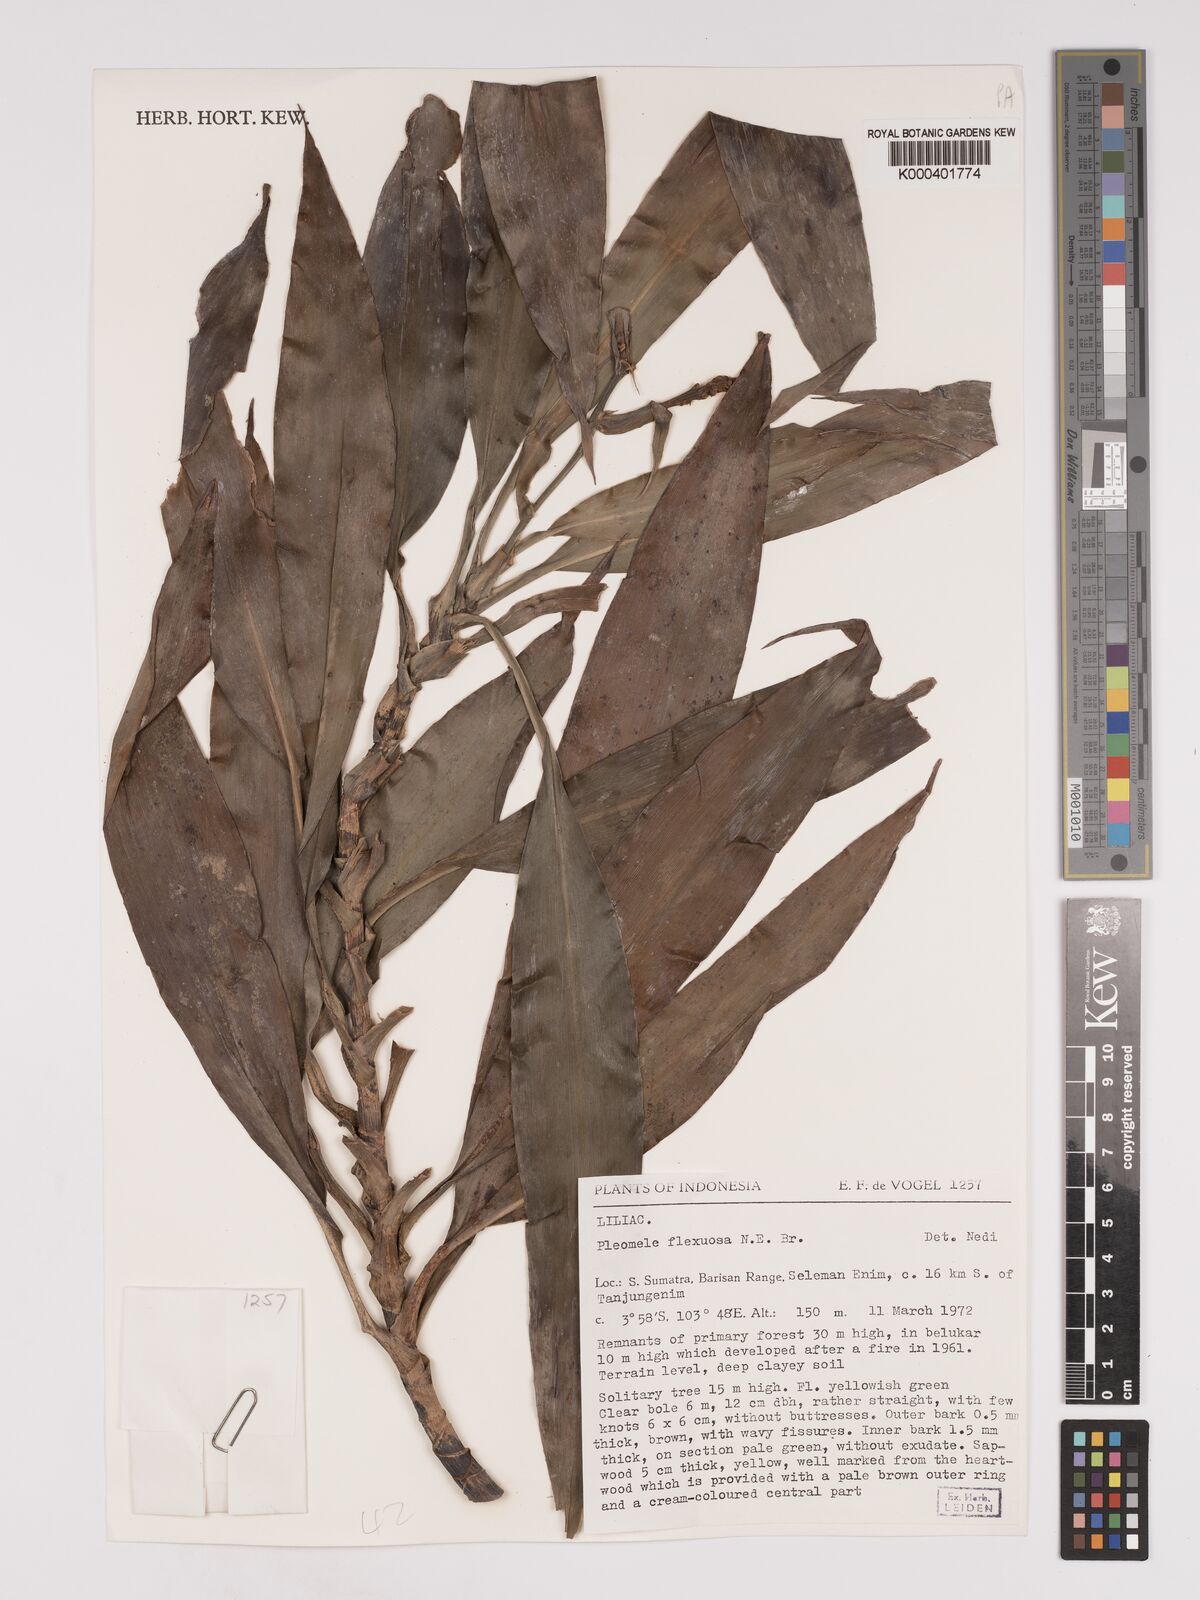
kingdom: Plantae
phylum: Tracheophyta
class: Liliopsida
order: Asparagales
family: Asparagaceae
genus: Dracaena
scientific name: Dracaena reflexa
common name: Song-of-india
